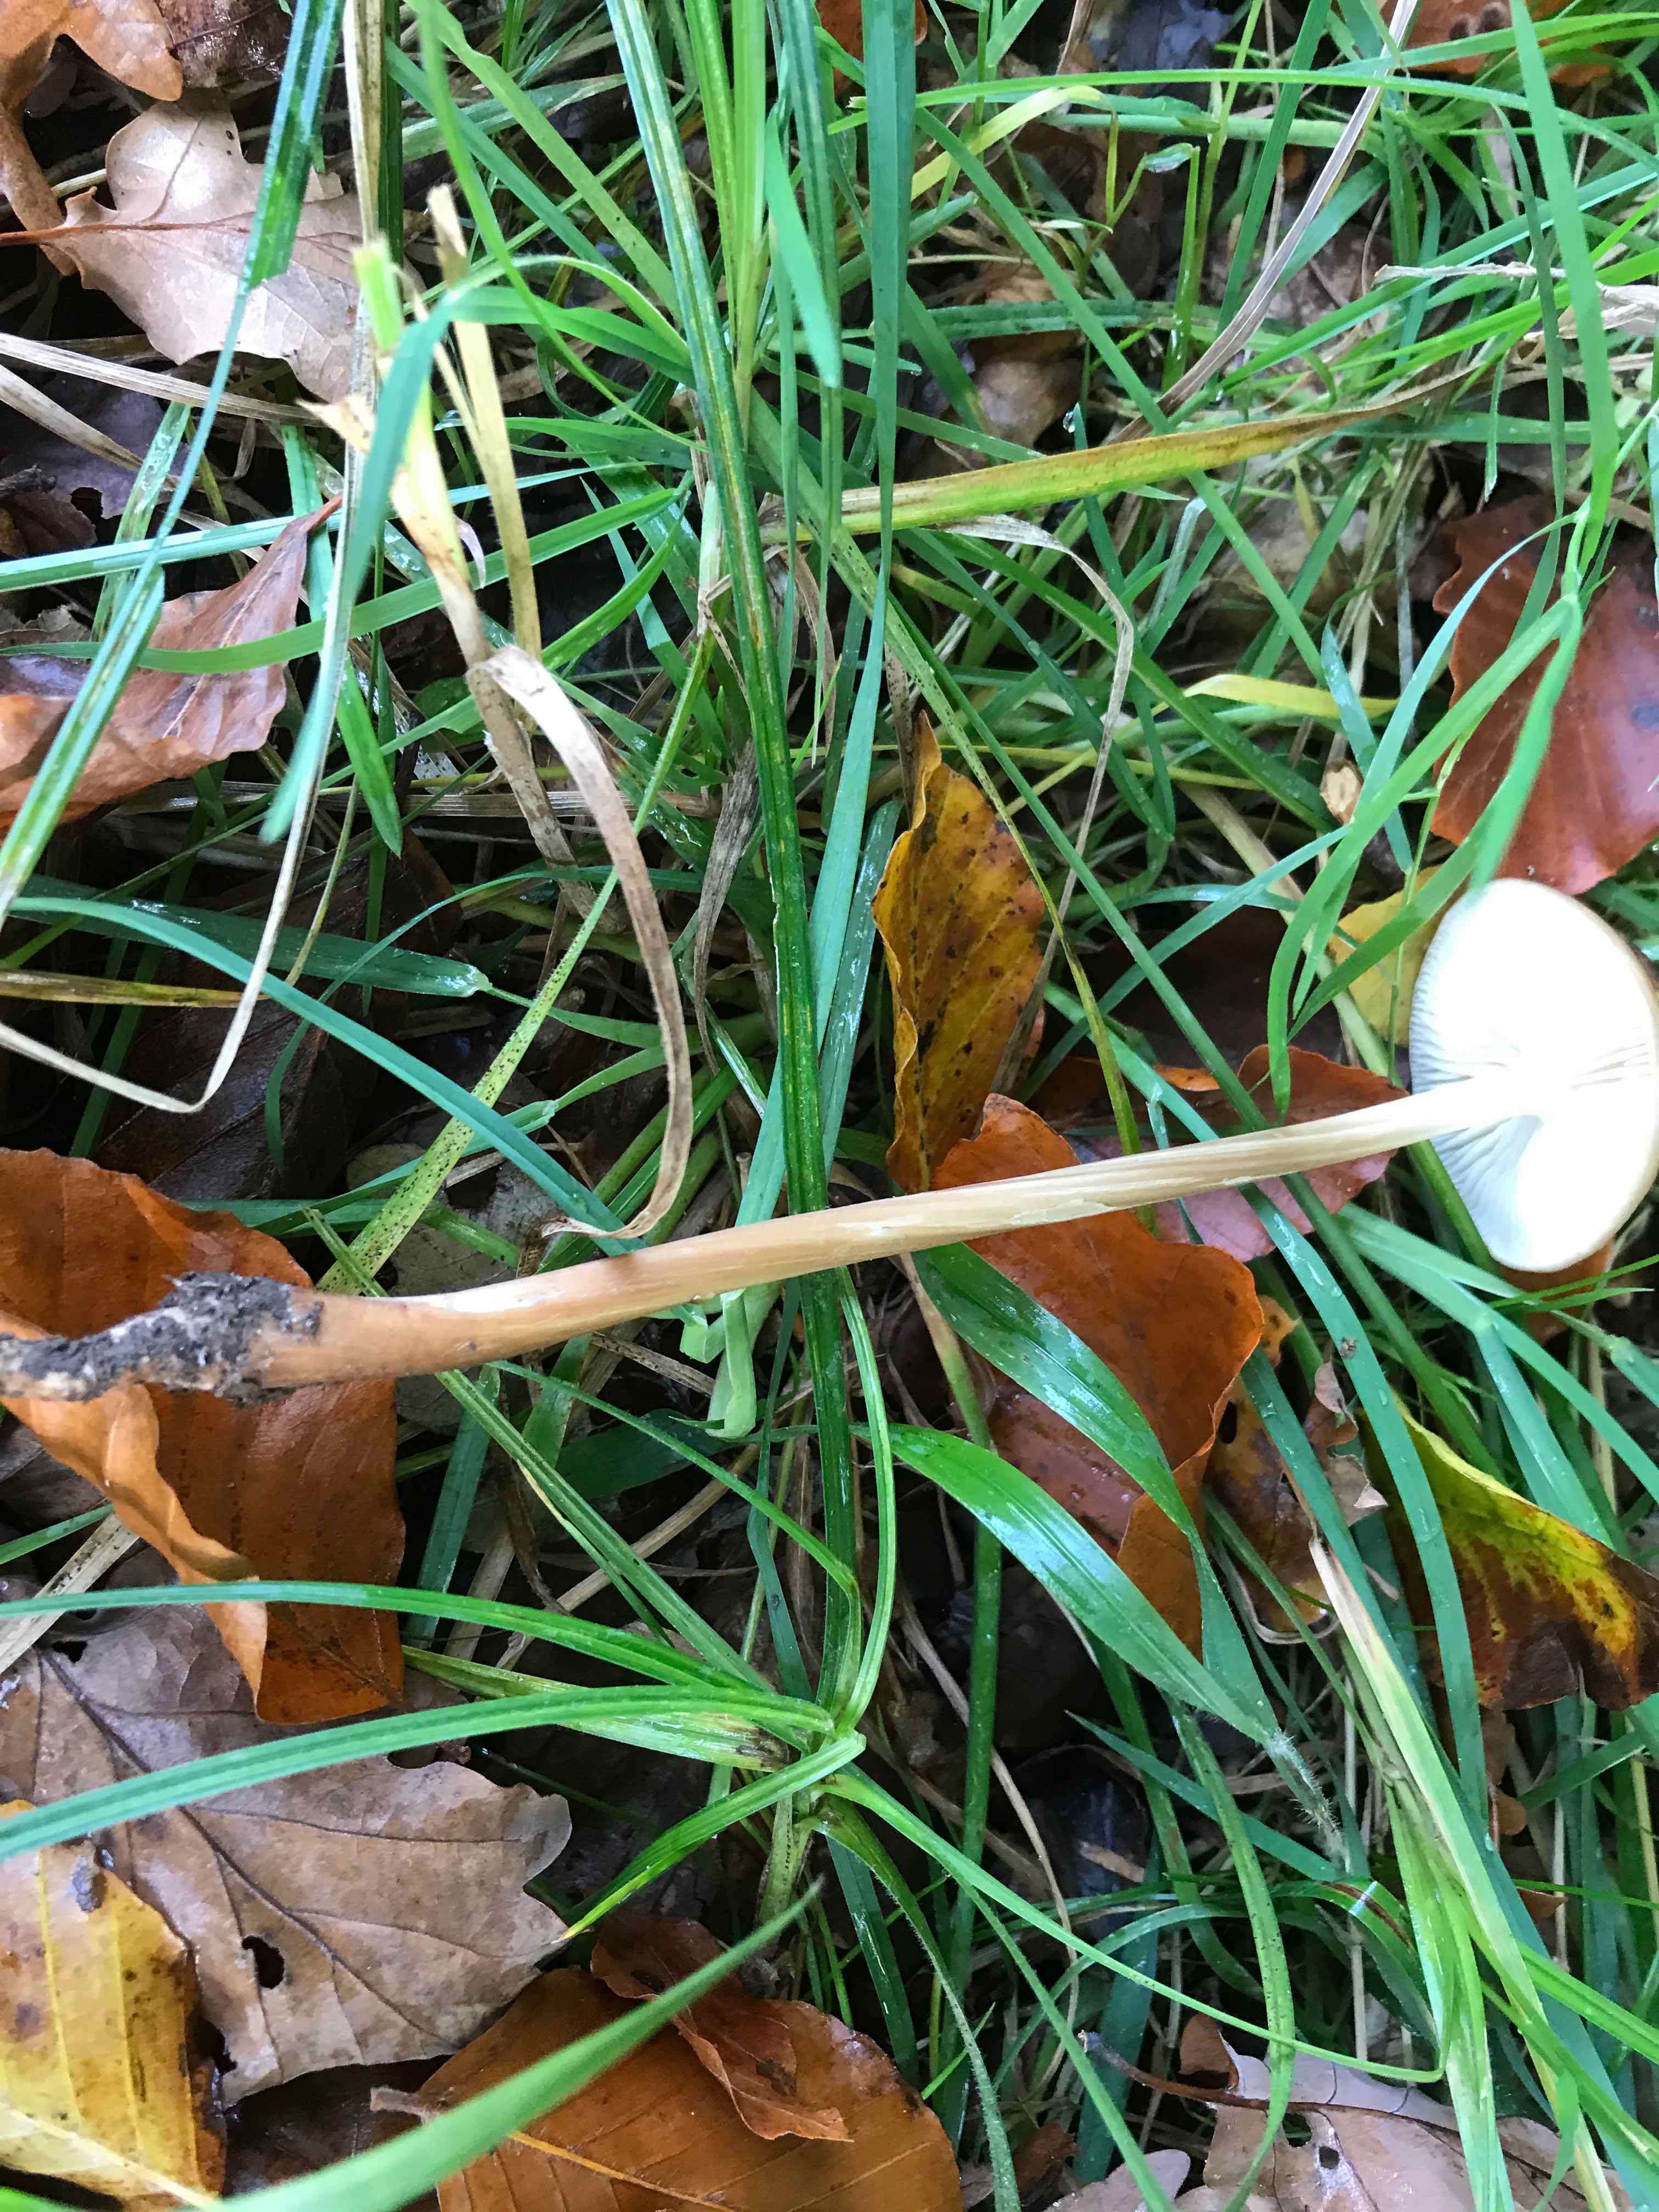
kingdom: Fungi
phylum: Basidiomycota
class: Agaricomycetes
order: Agaricales
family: Physalacriaceae
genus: Hymenopellis
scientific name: Hymenopellis radicata
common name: almindelig pælerodshat
